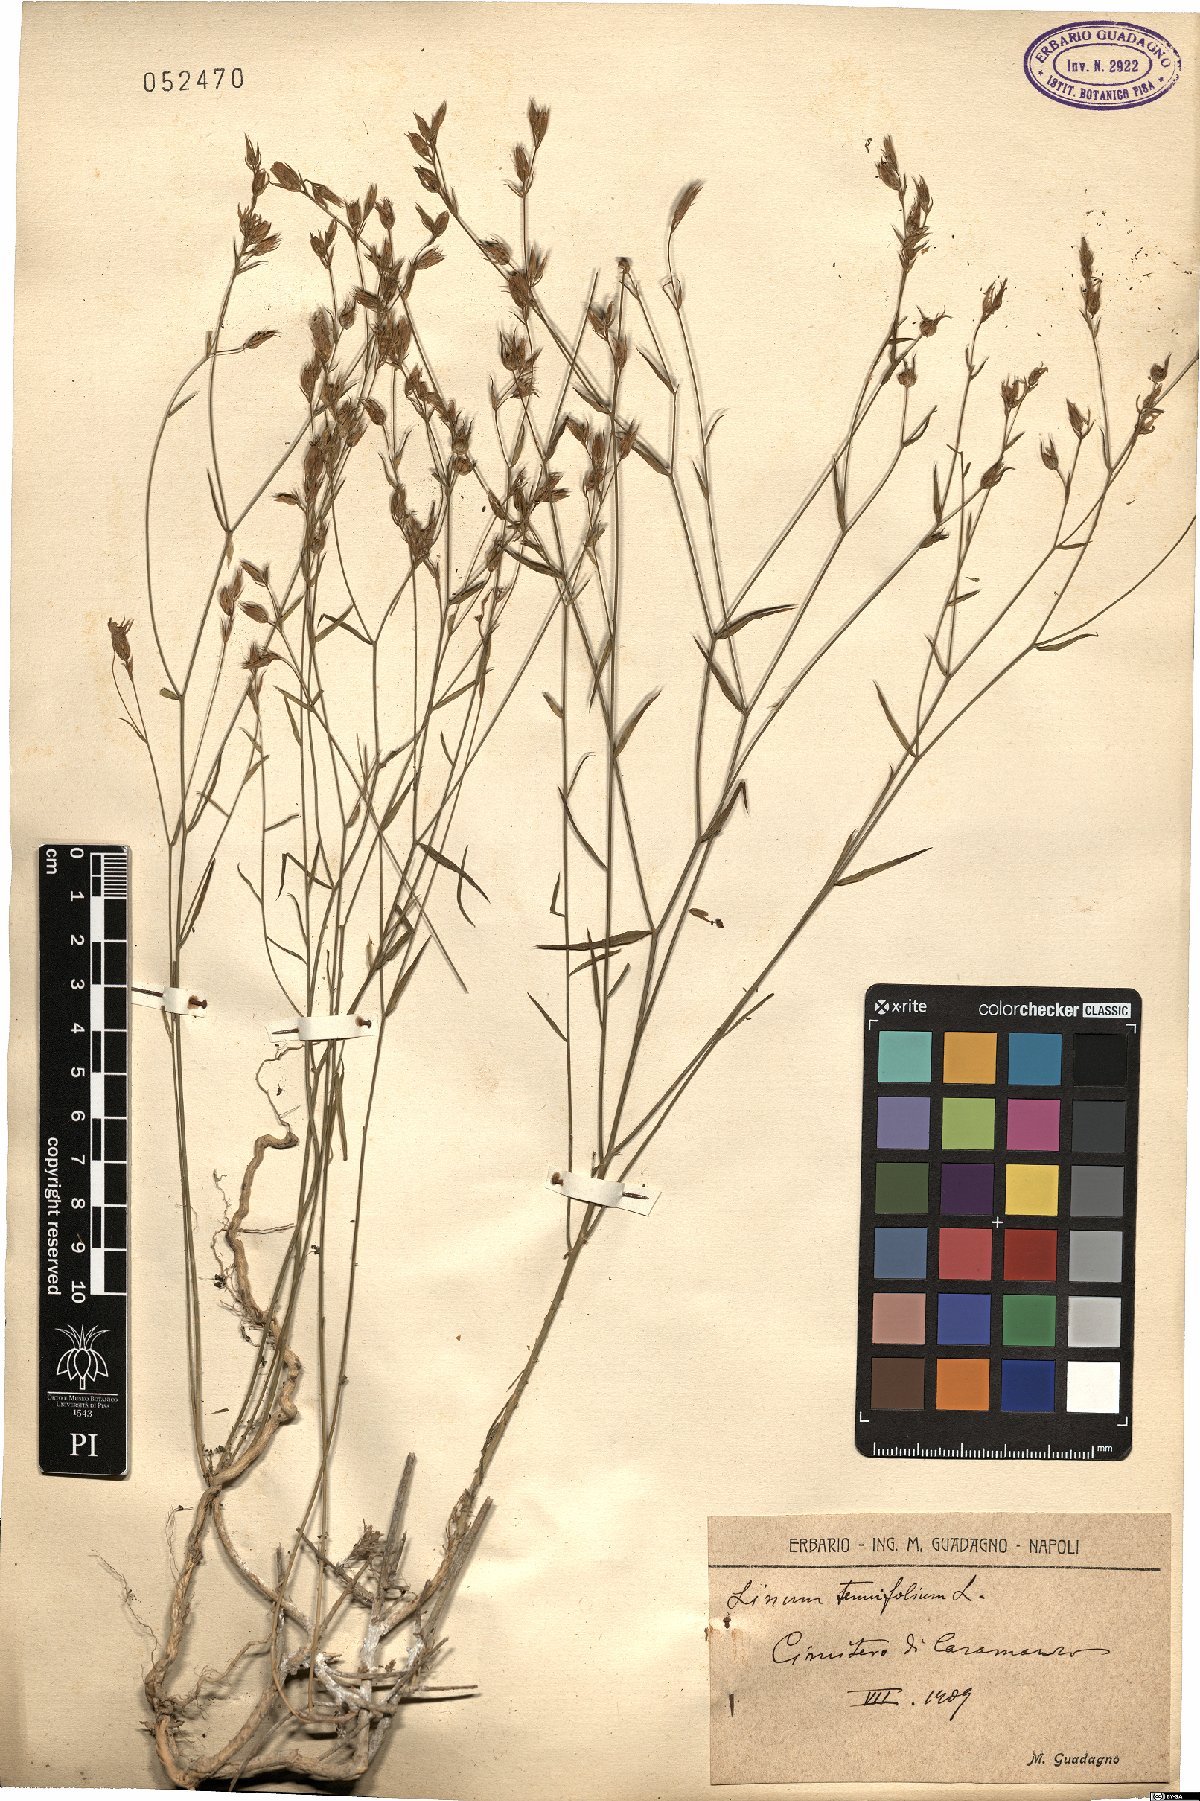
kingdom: Plantae
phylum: Tracheophyta
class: Magnoliopsida
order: Malpighiales
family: Linaceae
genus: Linum
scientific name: Linum tenuifolium
